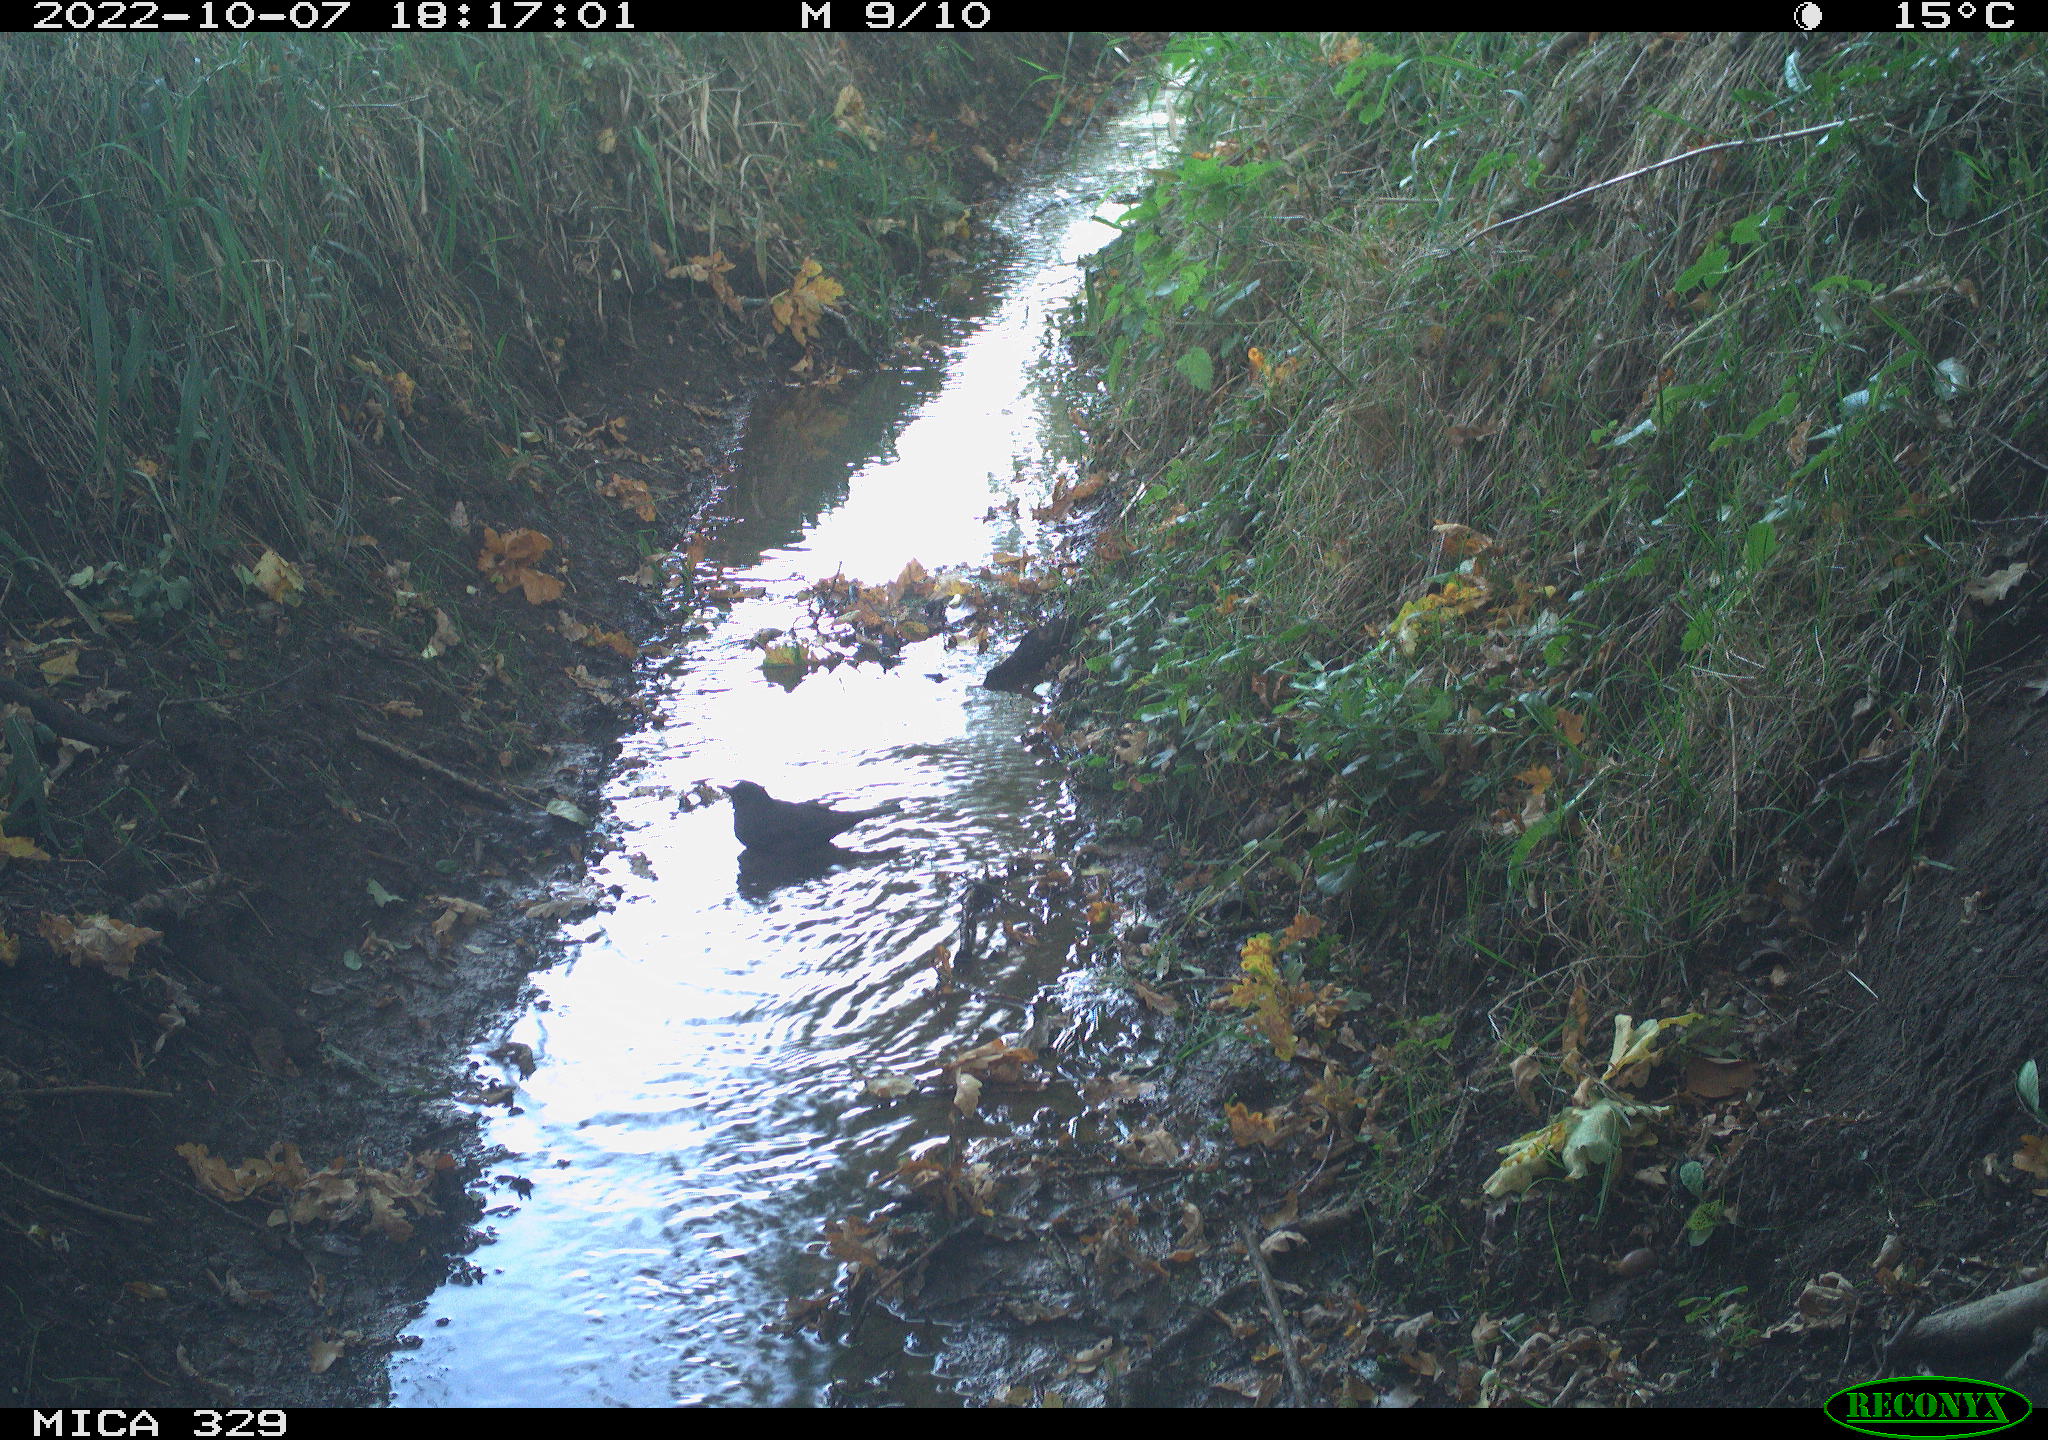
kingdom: Animalia
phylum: Chordata
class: Aves
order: Passeriformes
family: Turdidae
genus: Turdus
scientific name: Turdus merula
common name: Common blackbird
